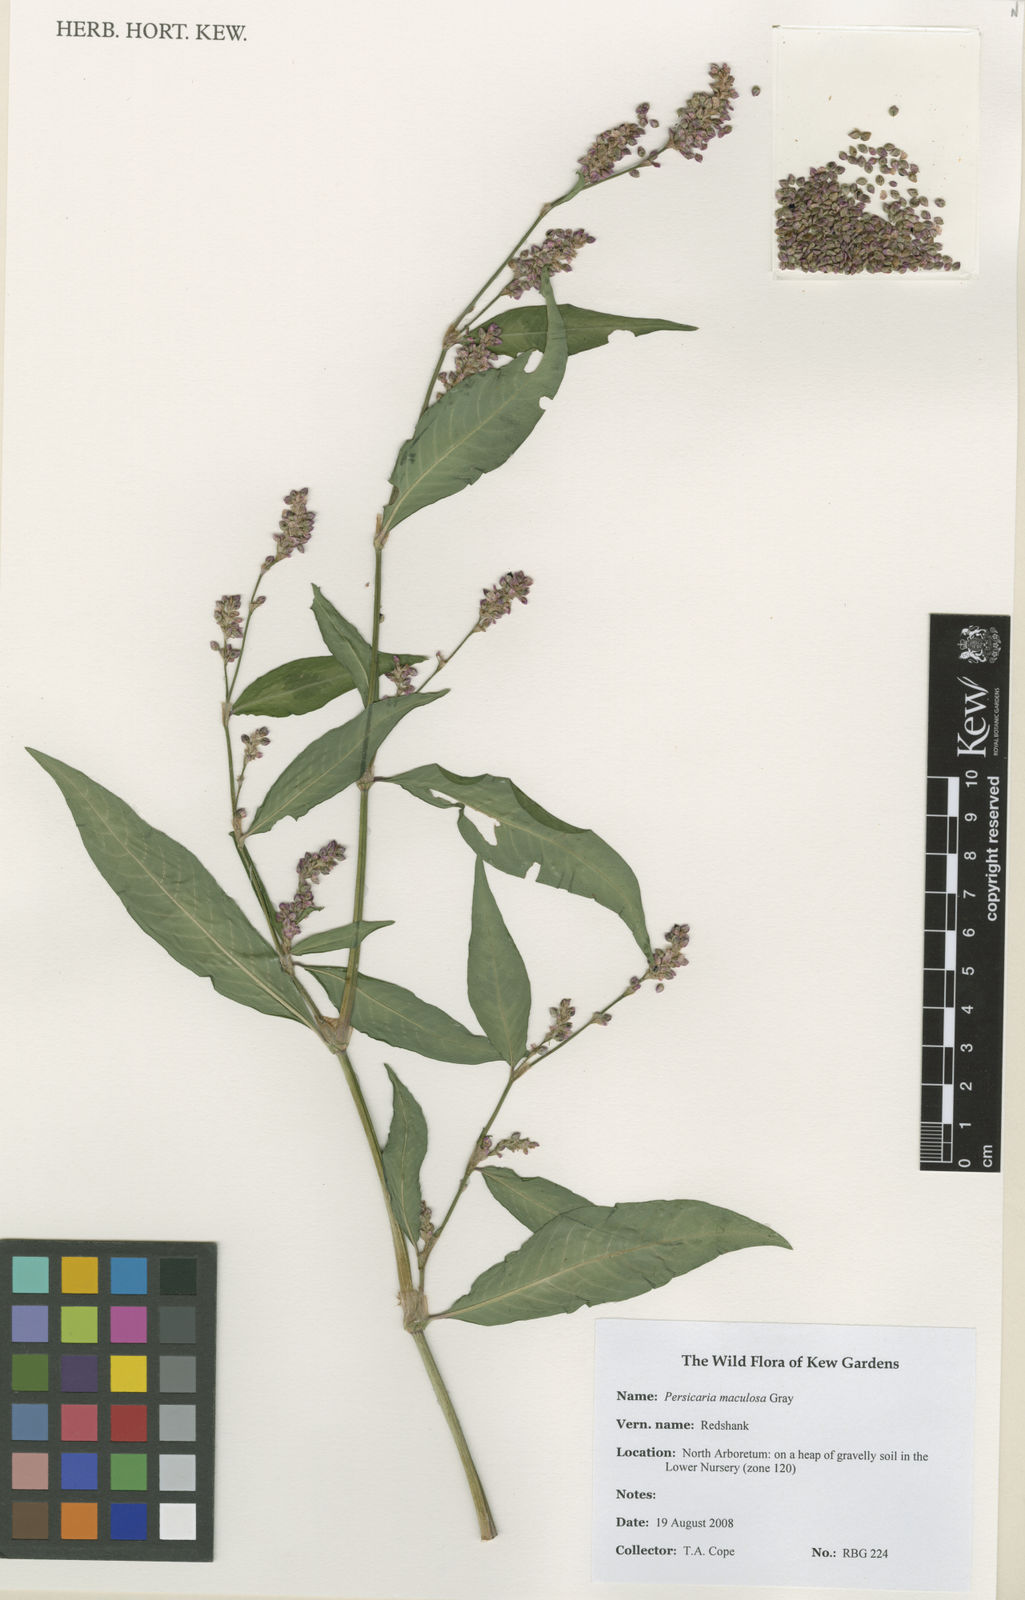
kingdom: Plantae
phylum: Tracheophyta
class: Magnoliopsida
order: Caryophyllales
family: Polygonaceae
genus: Persicaria
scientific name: Persicaria maculosa
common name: Redshank
